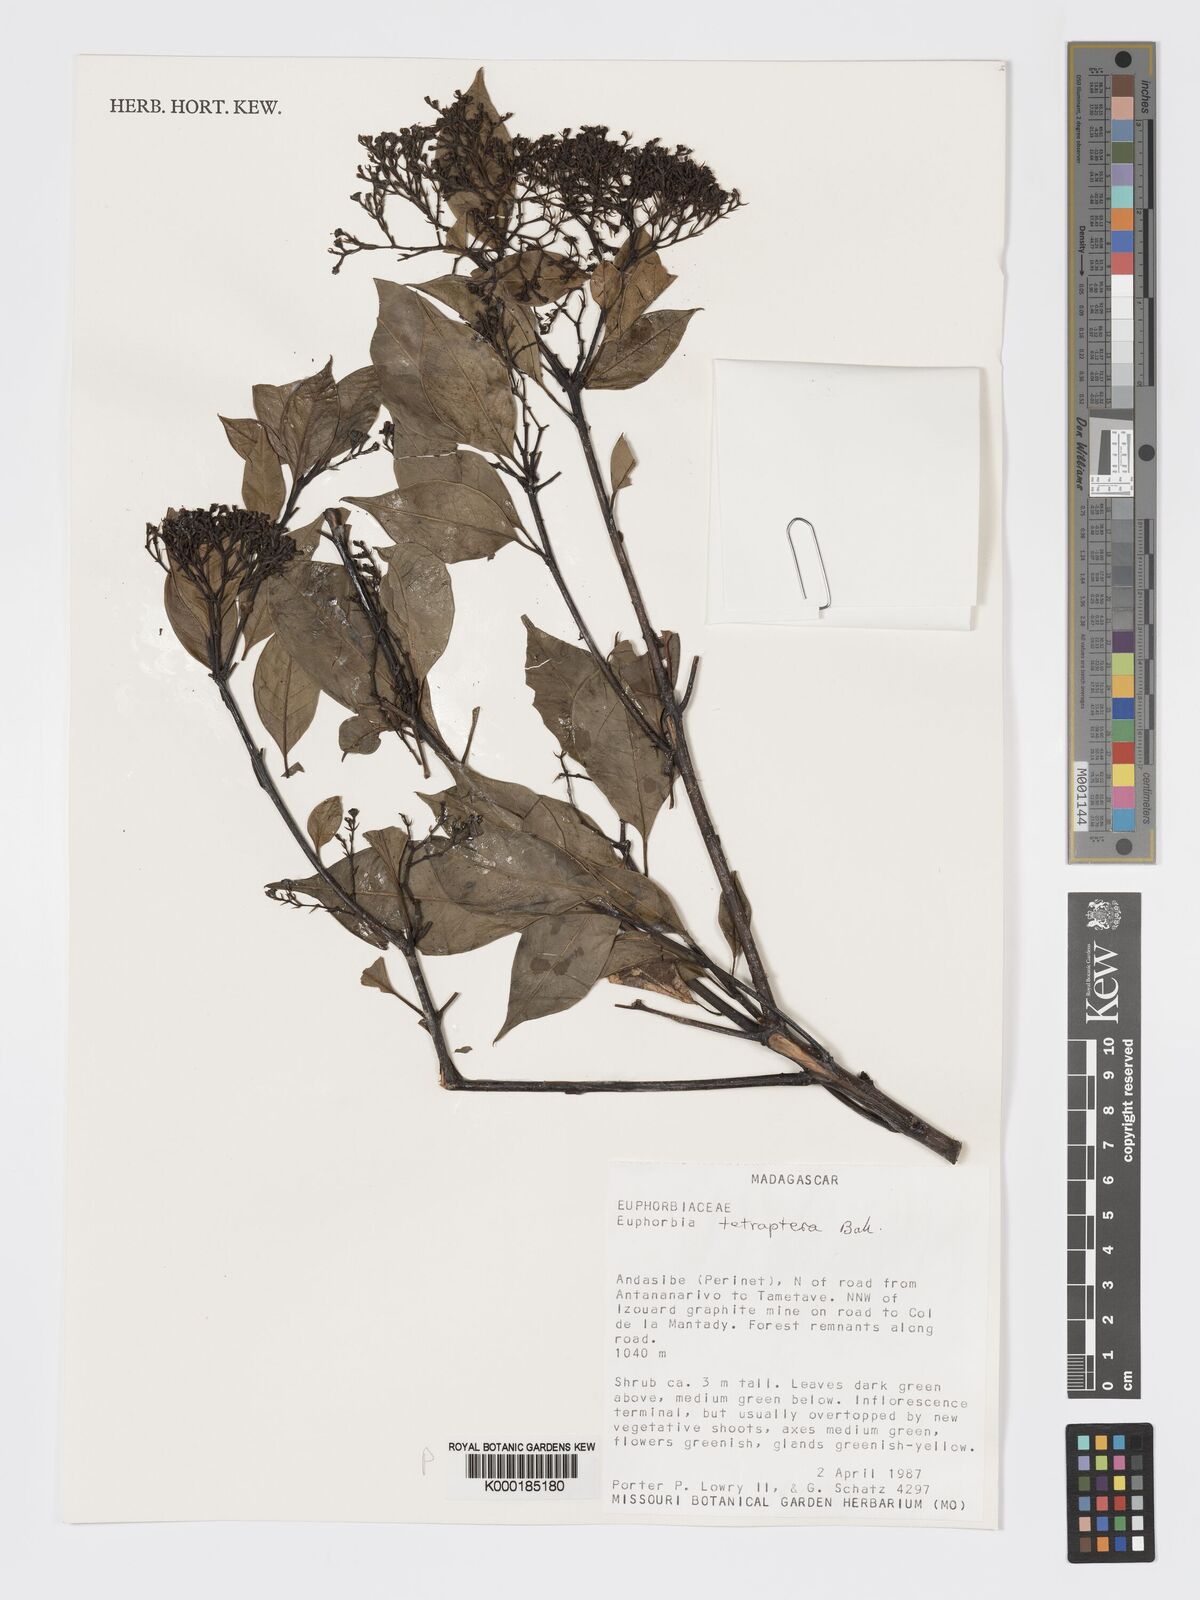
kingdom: Plantae
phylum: Tracheophyta
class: Magnoliopsida
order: Malpighiales
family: Euphorbiaceae
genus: Euphorbia
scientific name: Euphorbia tetraptera
